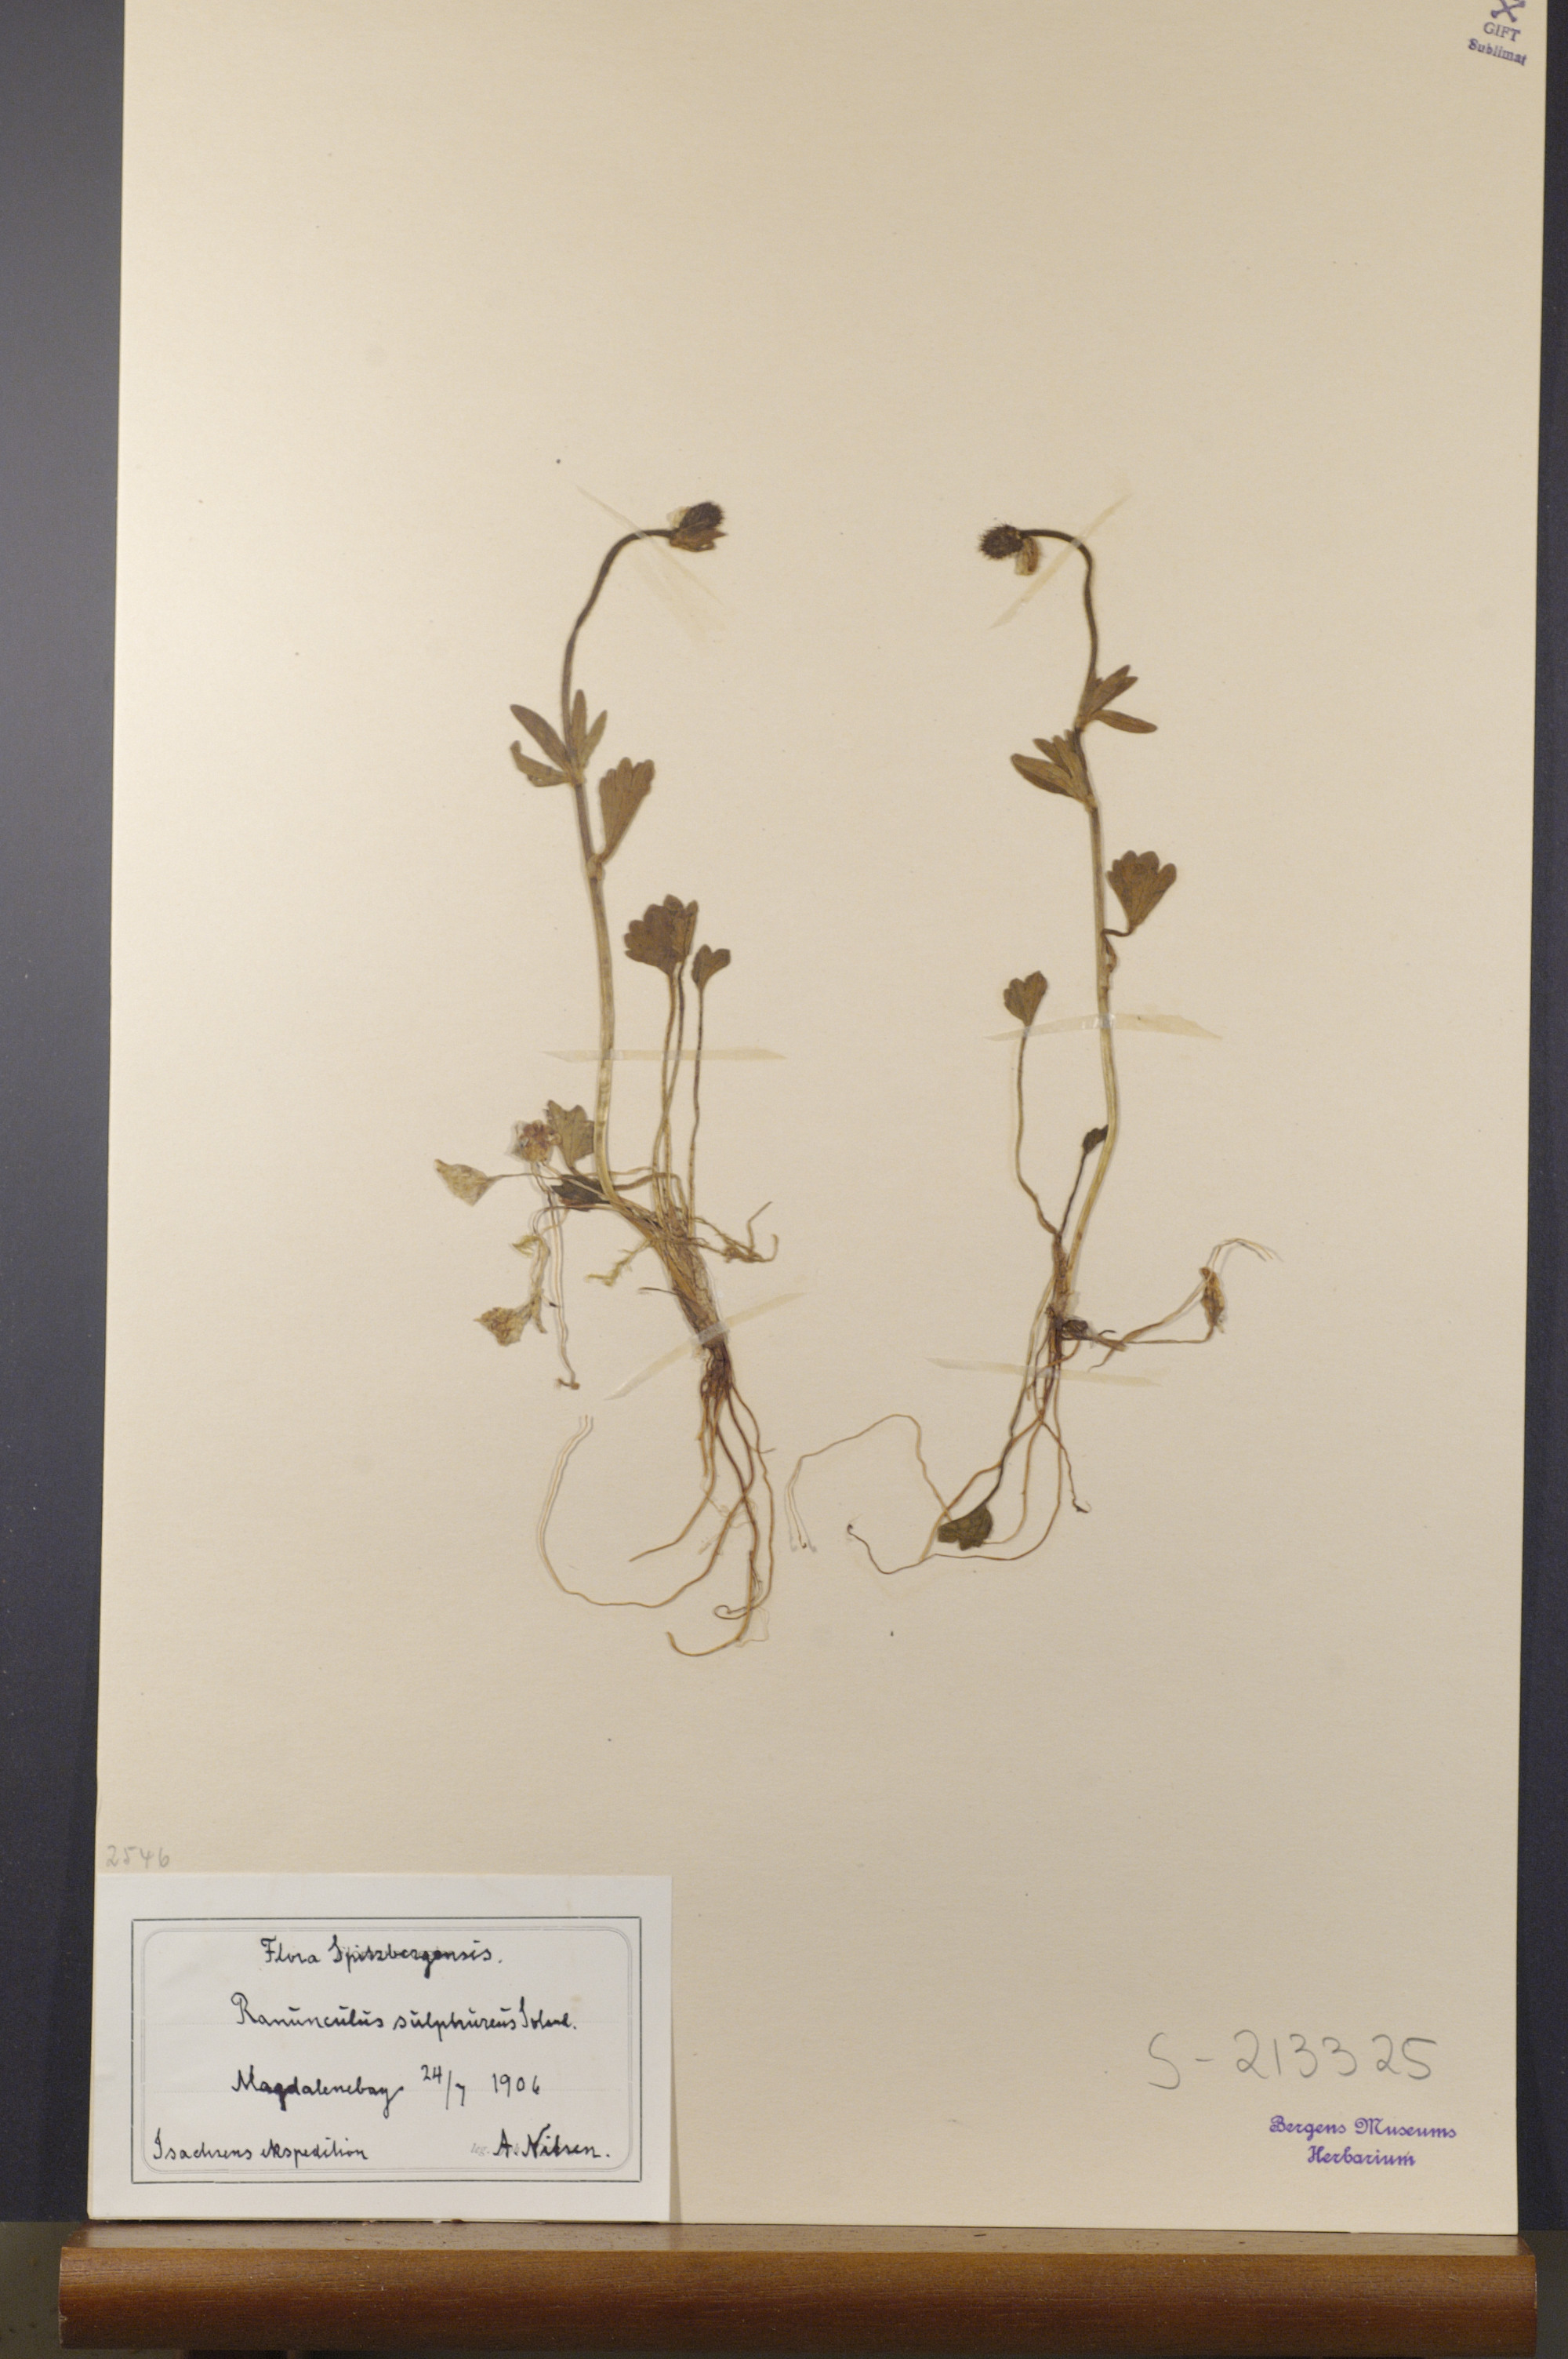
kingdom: Plantae
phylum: Tracheophyta
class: Magnoliopsida
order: Ranunculales
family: Ranunculaceae
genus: Ranunculus
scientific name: Ranunculus sulphureus
